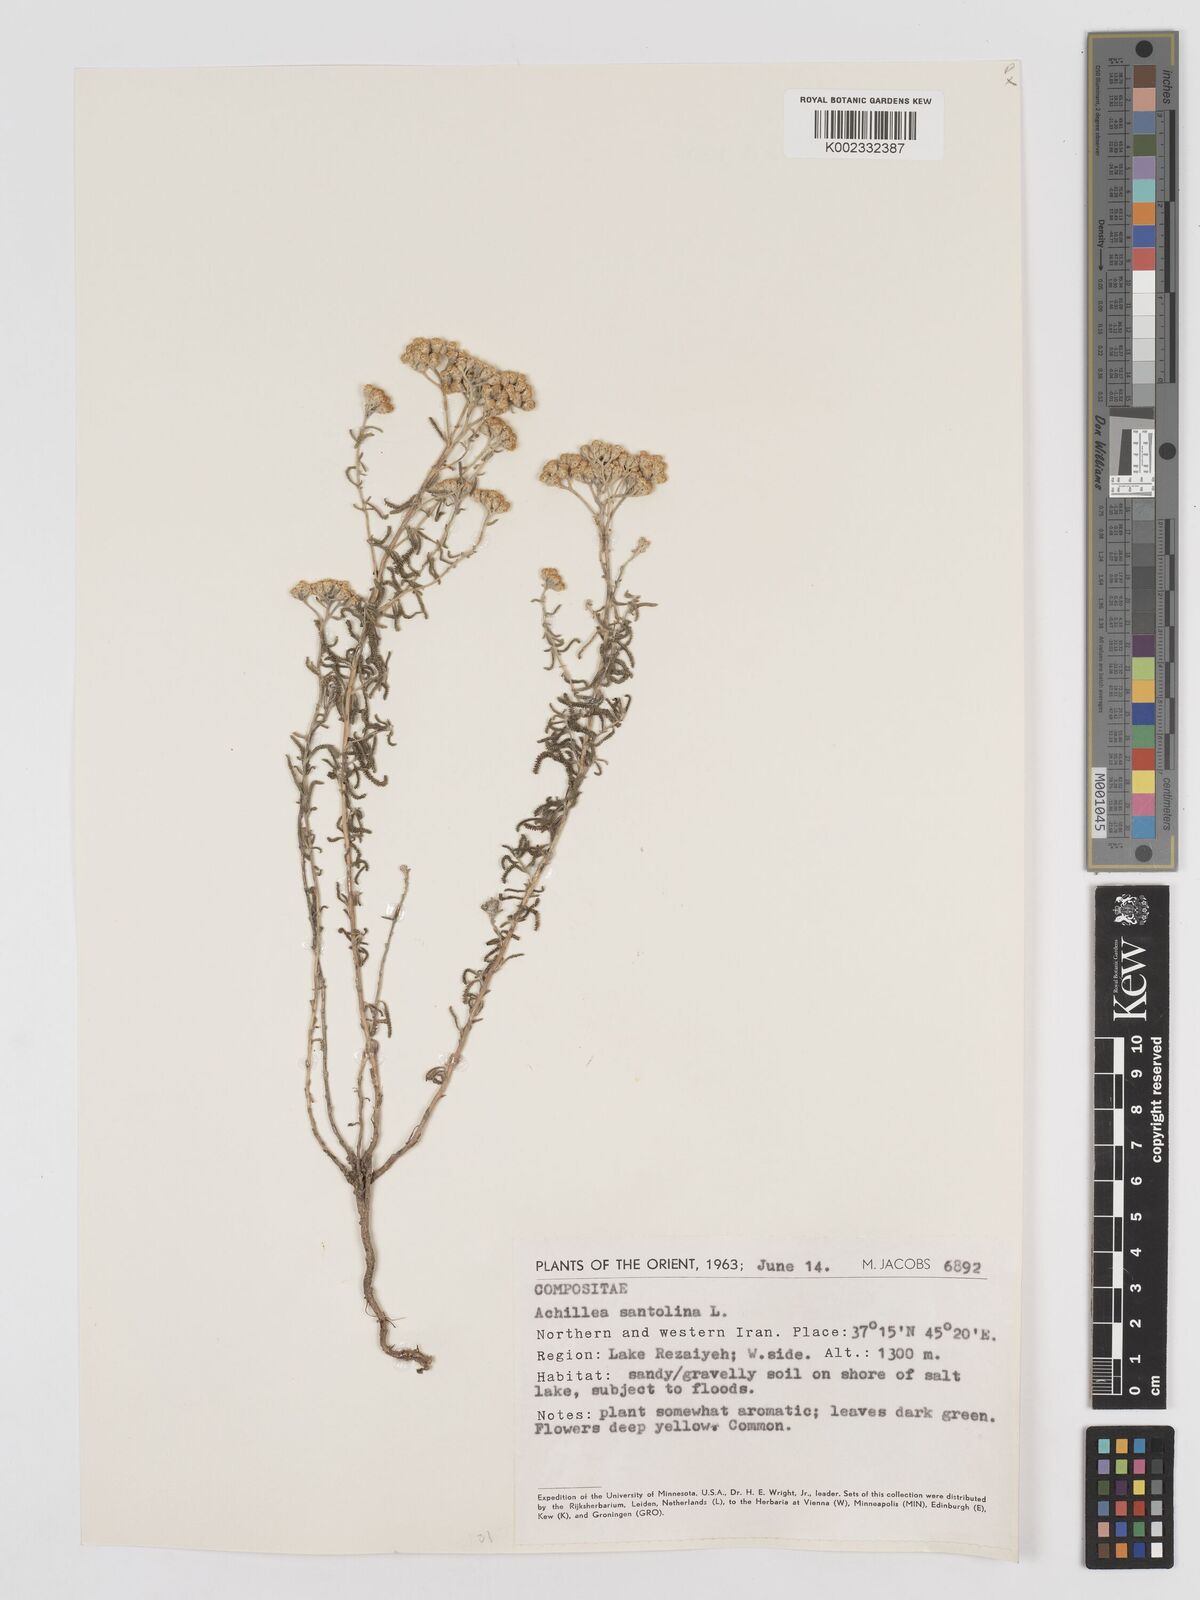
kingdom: Plantae
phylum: Tracheophyta
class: Magnoliopsida
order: Asterales
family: Asteraceae
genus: Achillea
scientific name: Achillea cretica
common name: Chamomile-leaved lavender-cotton
